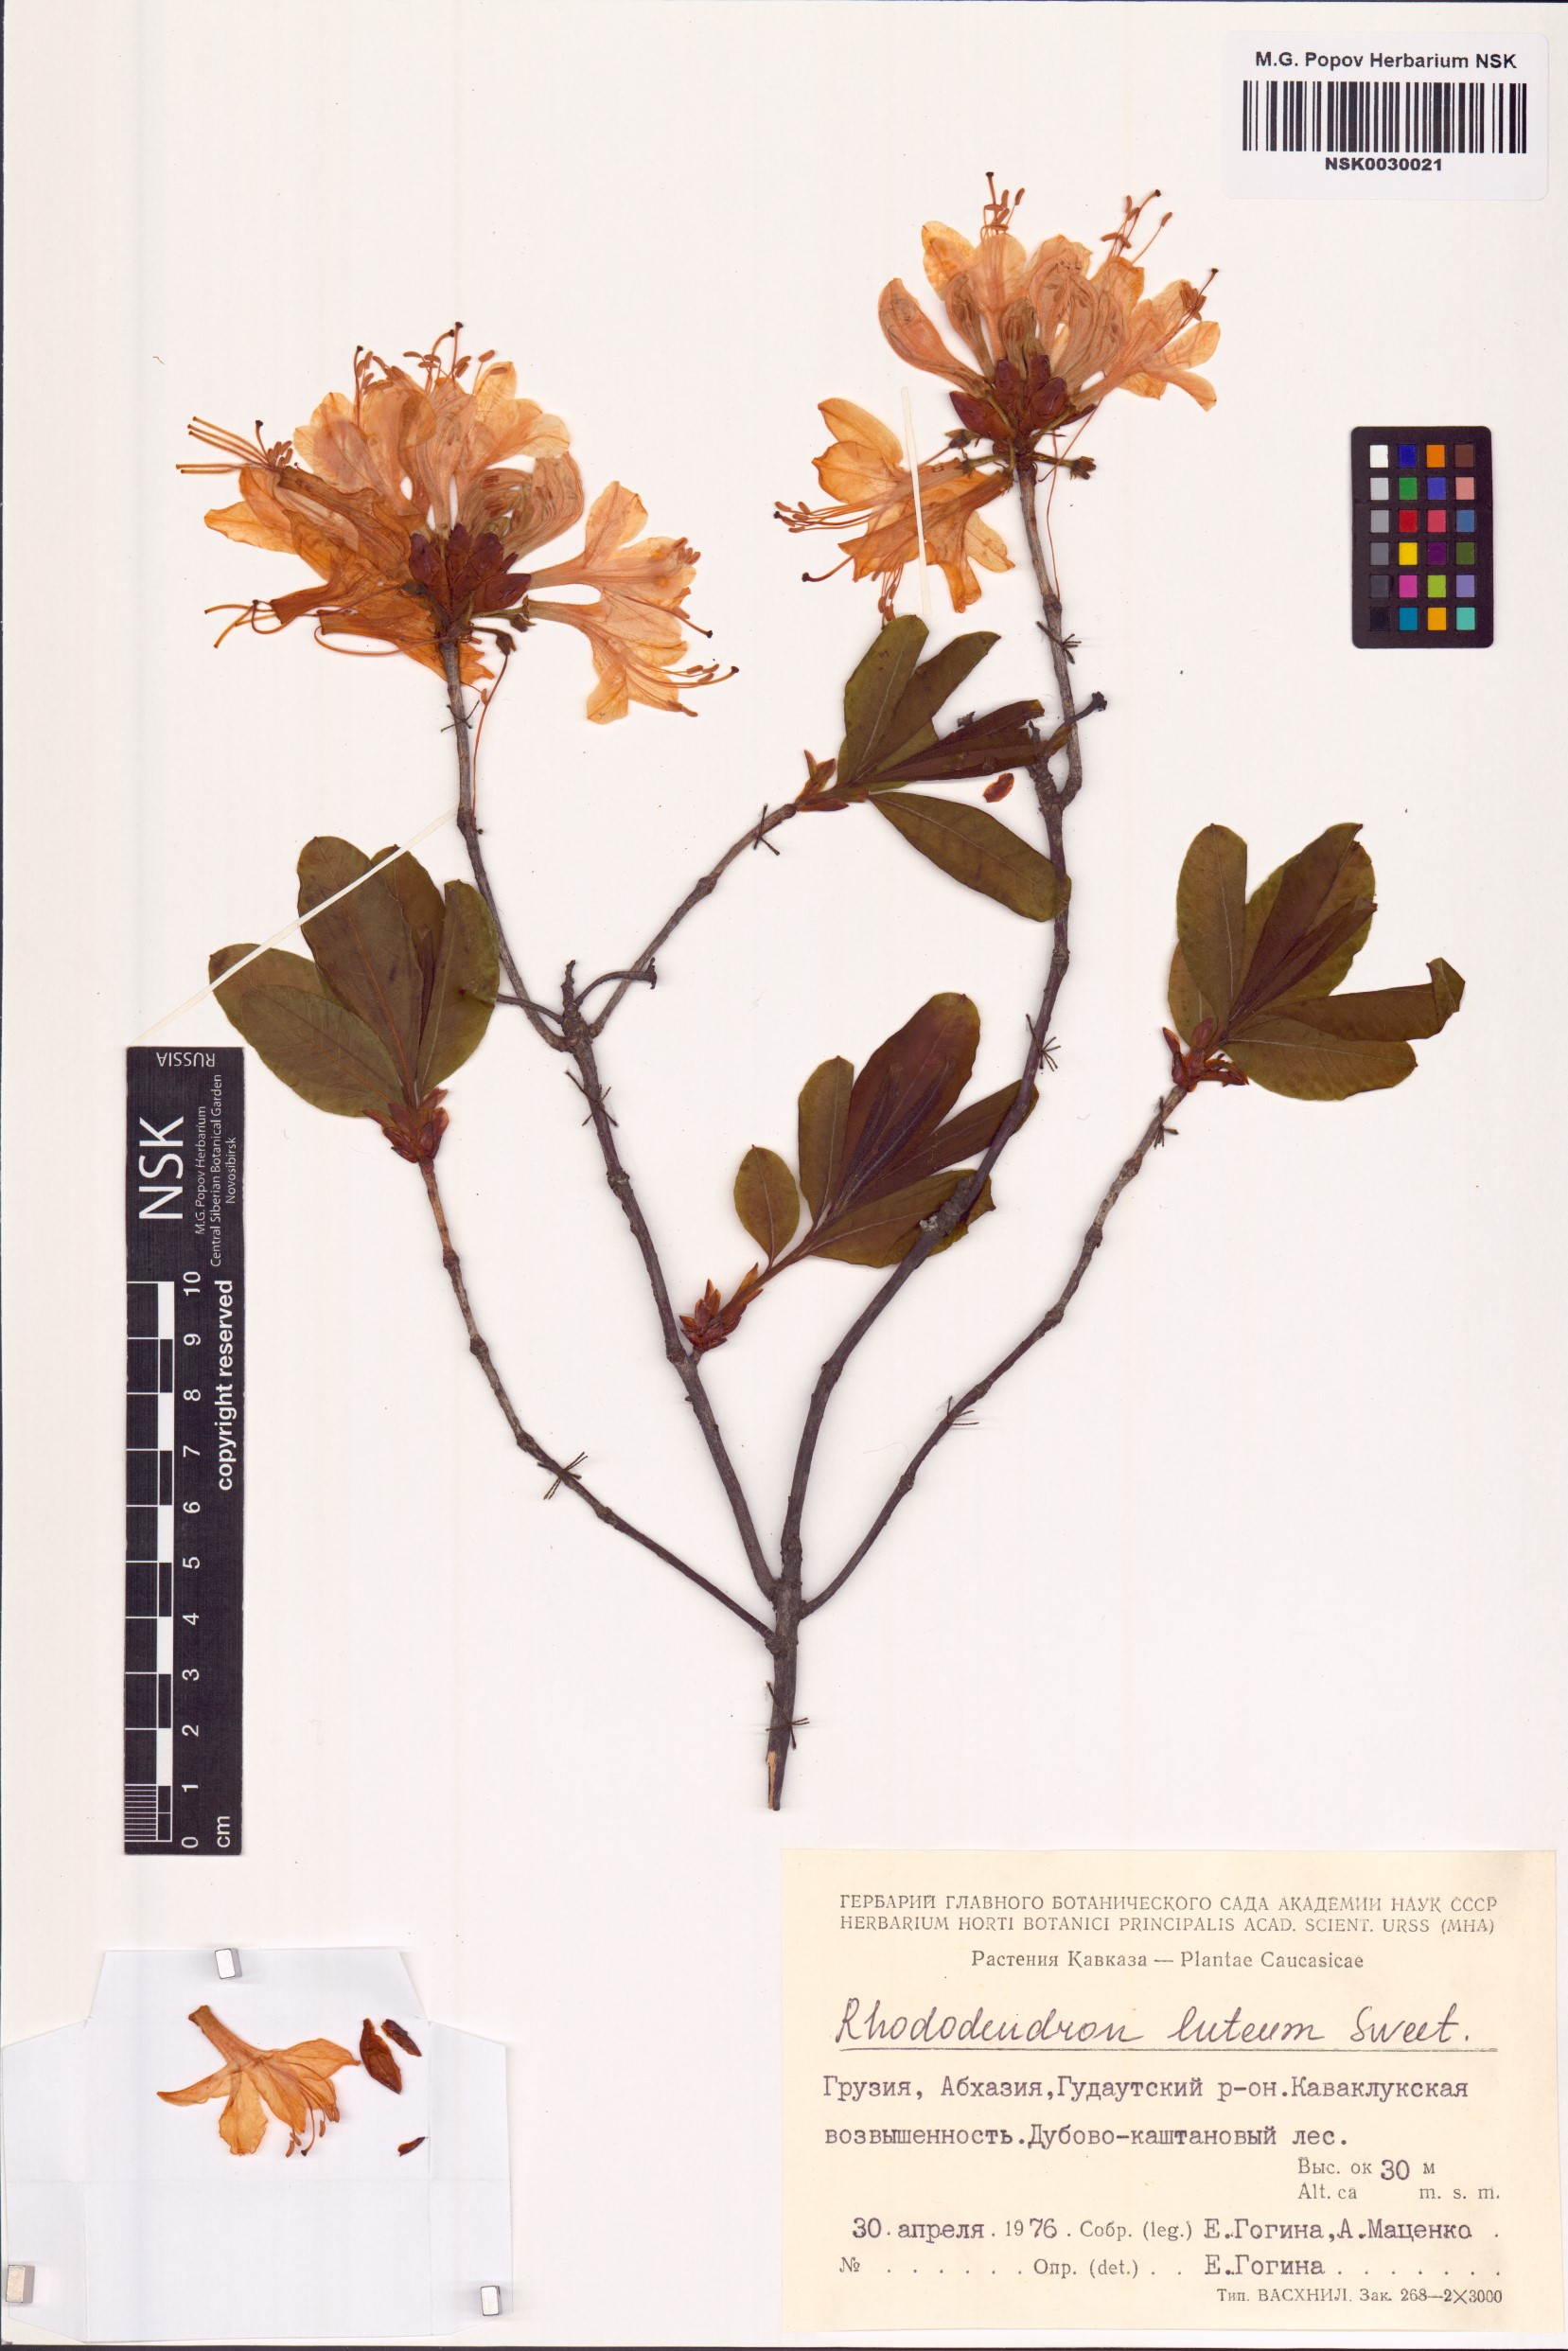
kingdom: Plantae
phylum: Tracheophyta
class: Magnoliopsida
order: Ericales
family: Ericaceae
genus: Rhododendron
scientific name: Rhododendron luteum
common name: Yellow azalea
